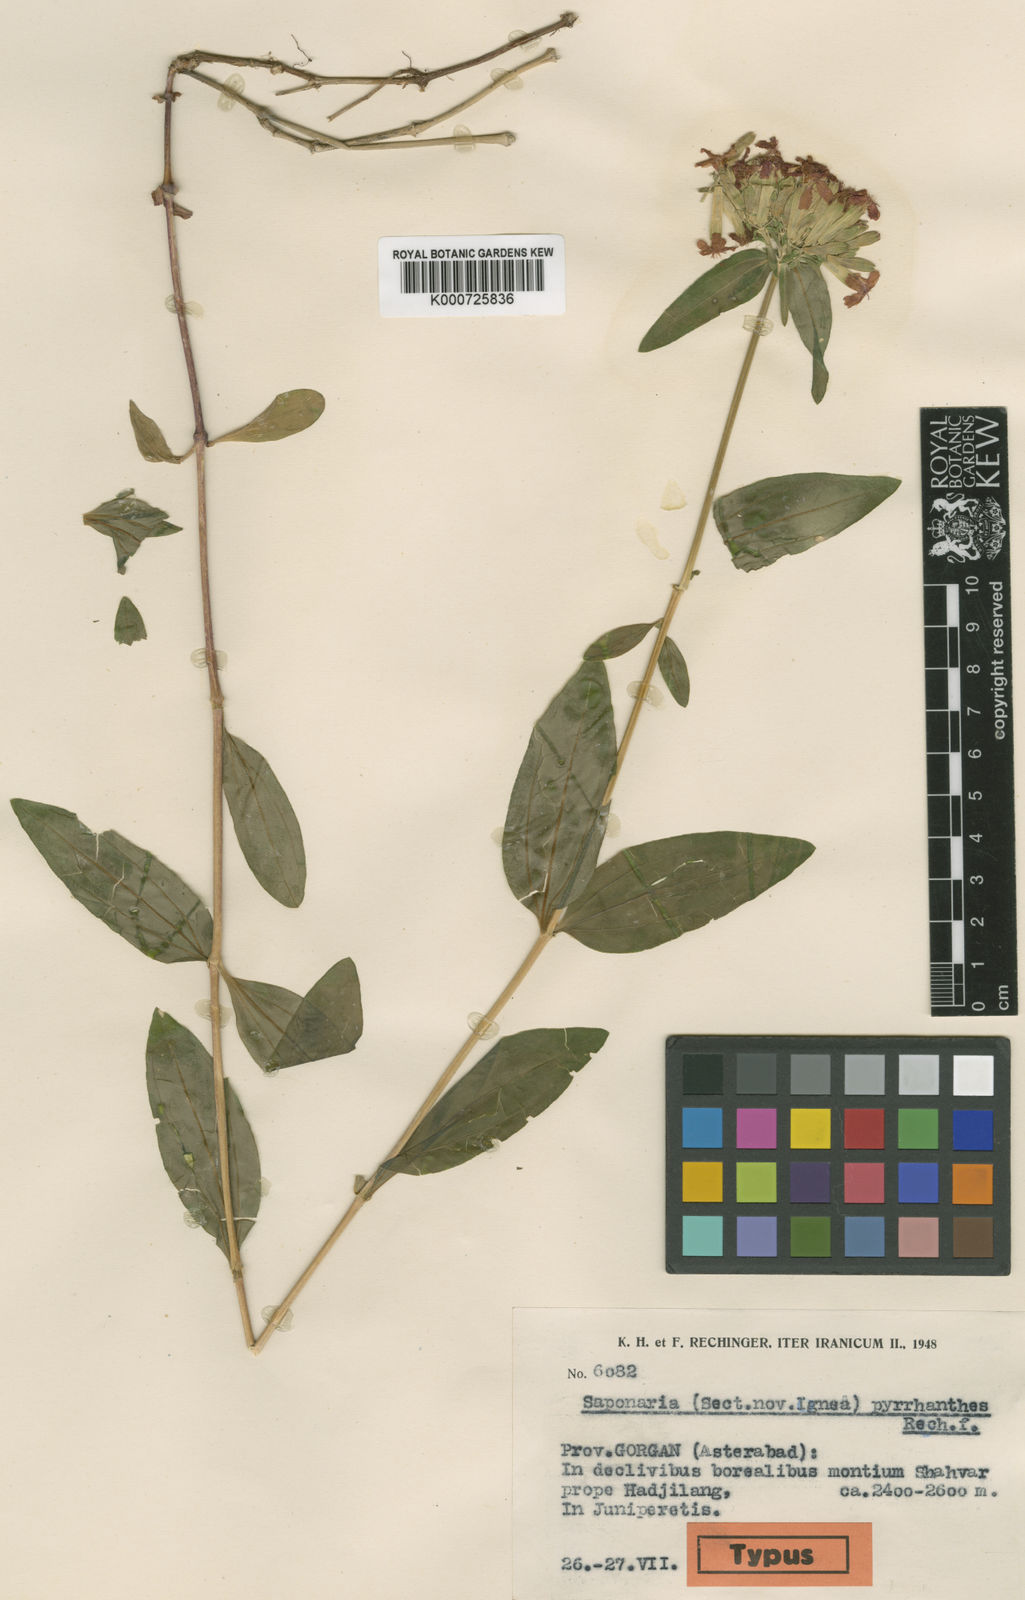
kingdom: Plantae
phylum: Tracheophyta
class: Magnoliopsida
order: Caryophyllales
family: Caryophyllaceae
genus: Saponaria
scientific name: Saponaria
